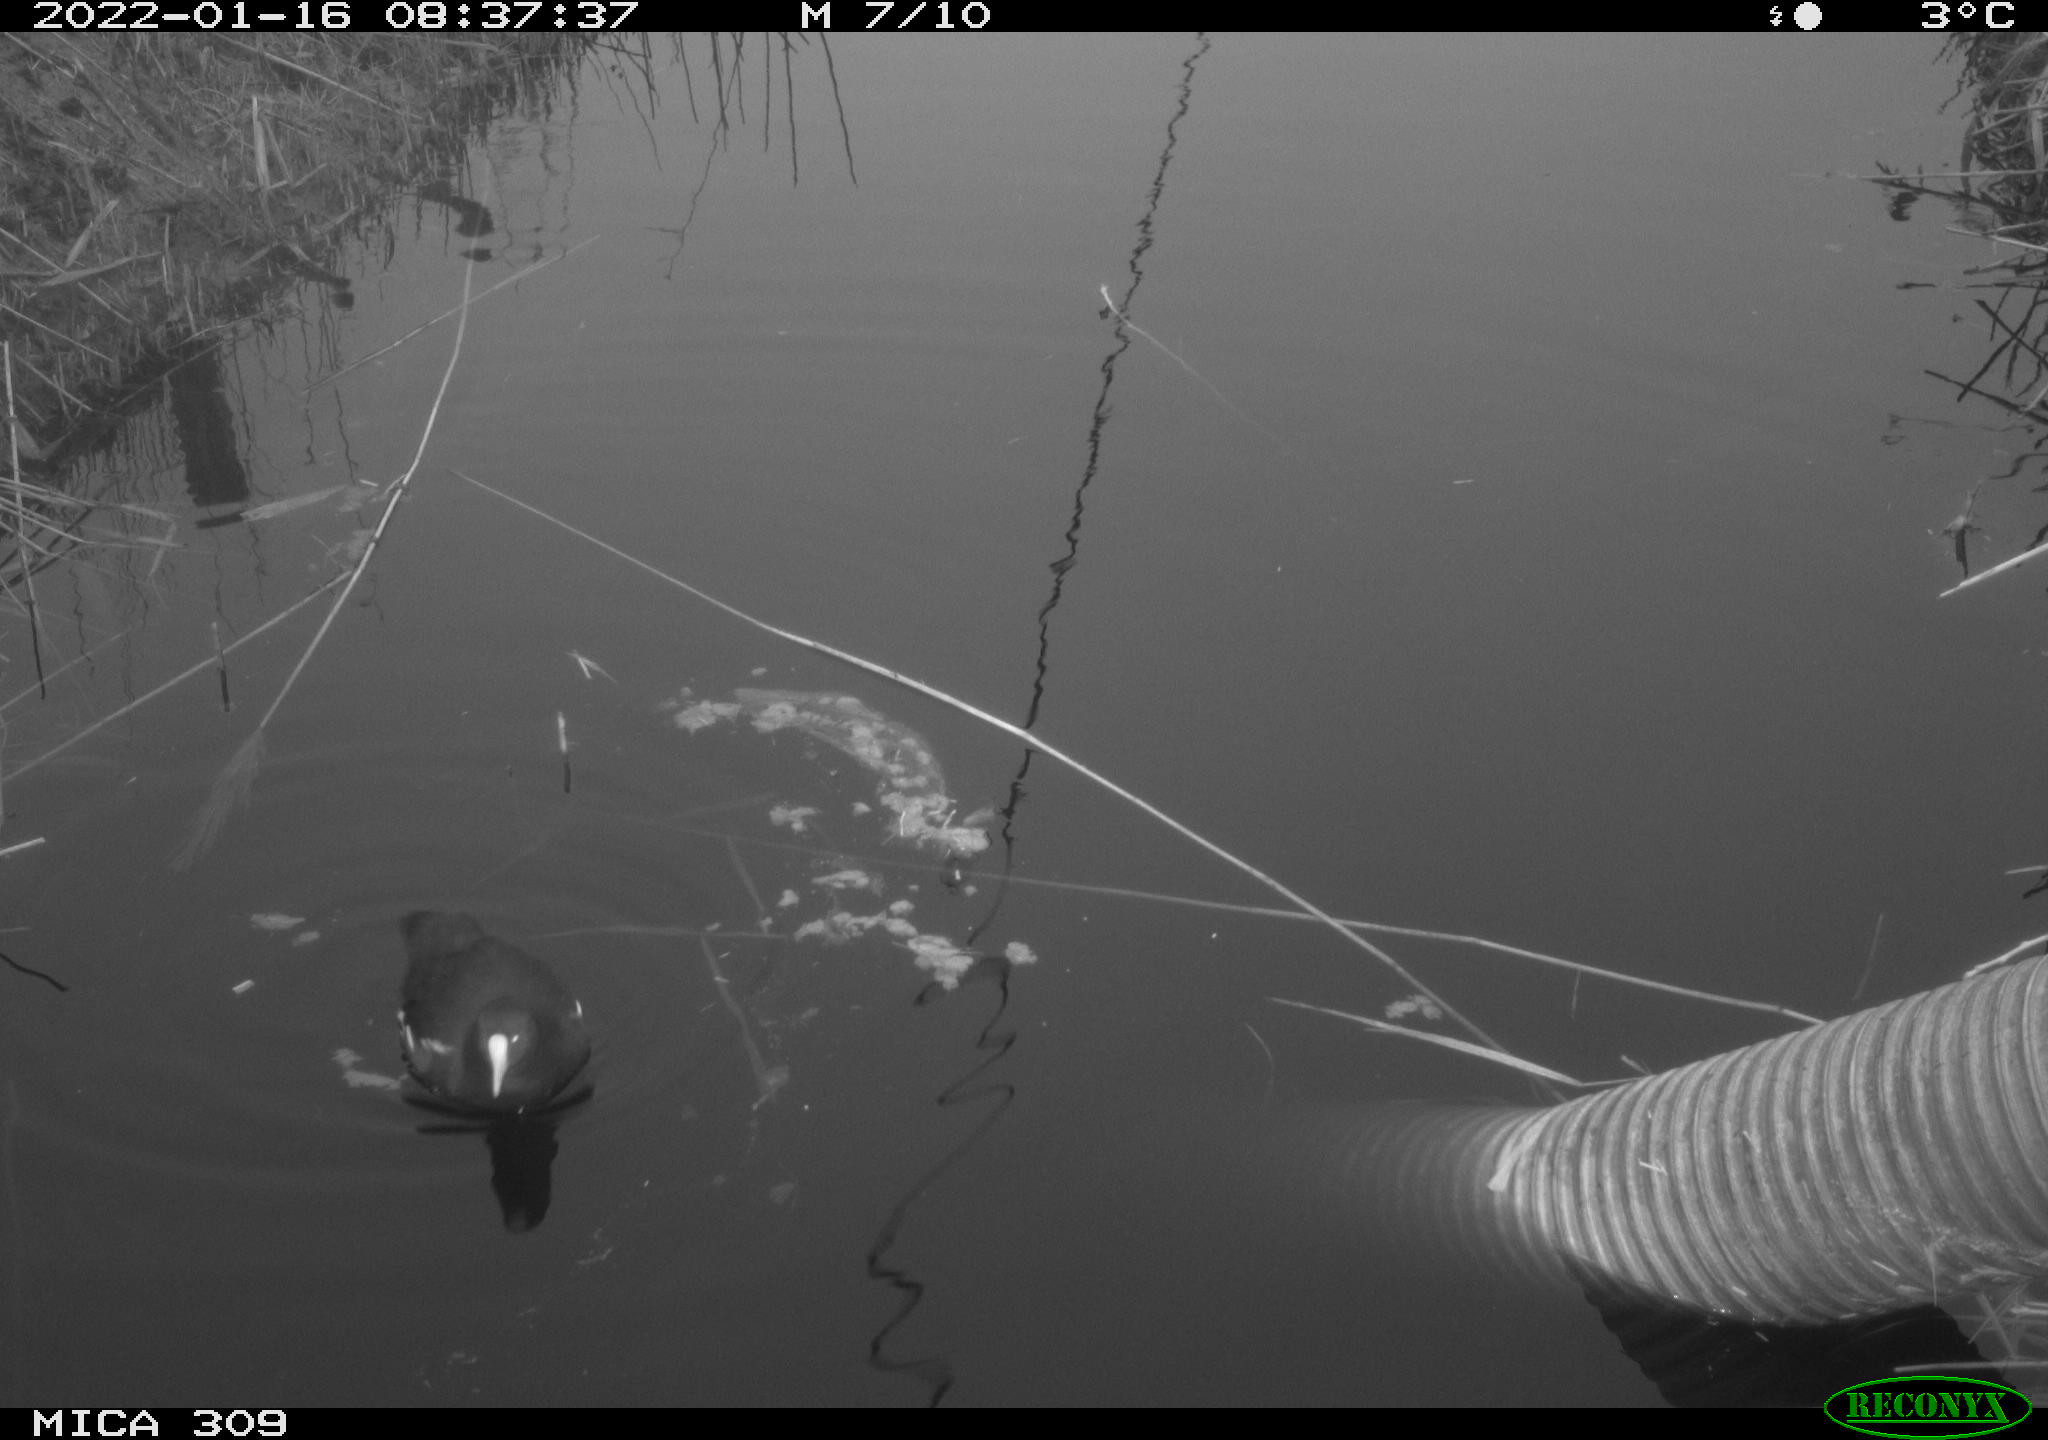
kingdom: Animalia
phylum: Chordata
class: Aves
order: Gruiformes
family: Rallidae
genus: Gallinula
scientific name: Gallinula chloropus
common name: Common moorhen
